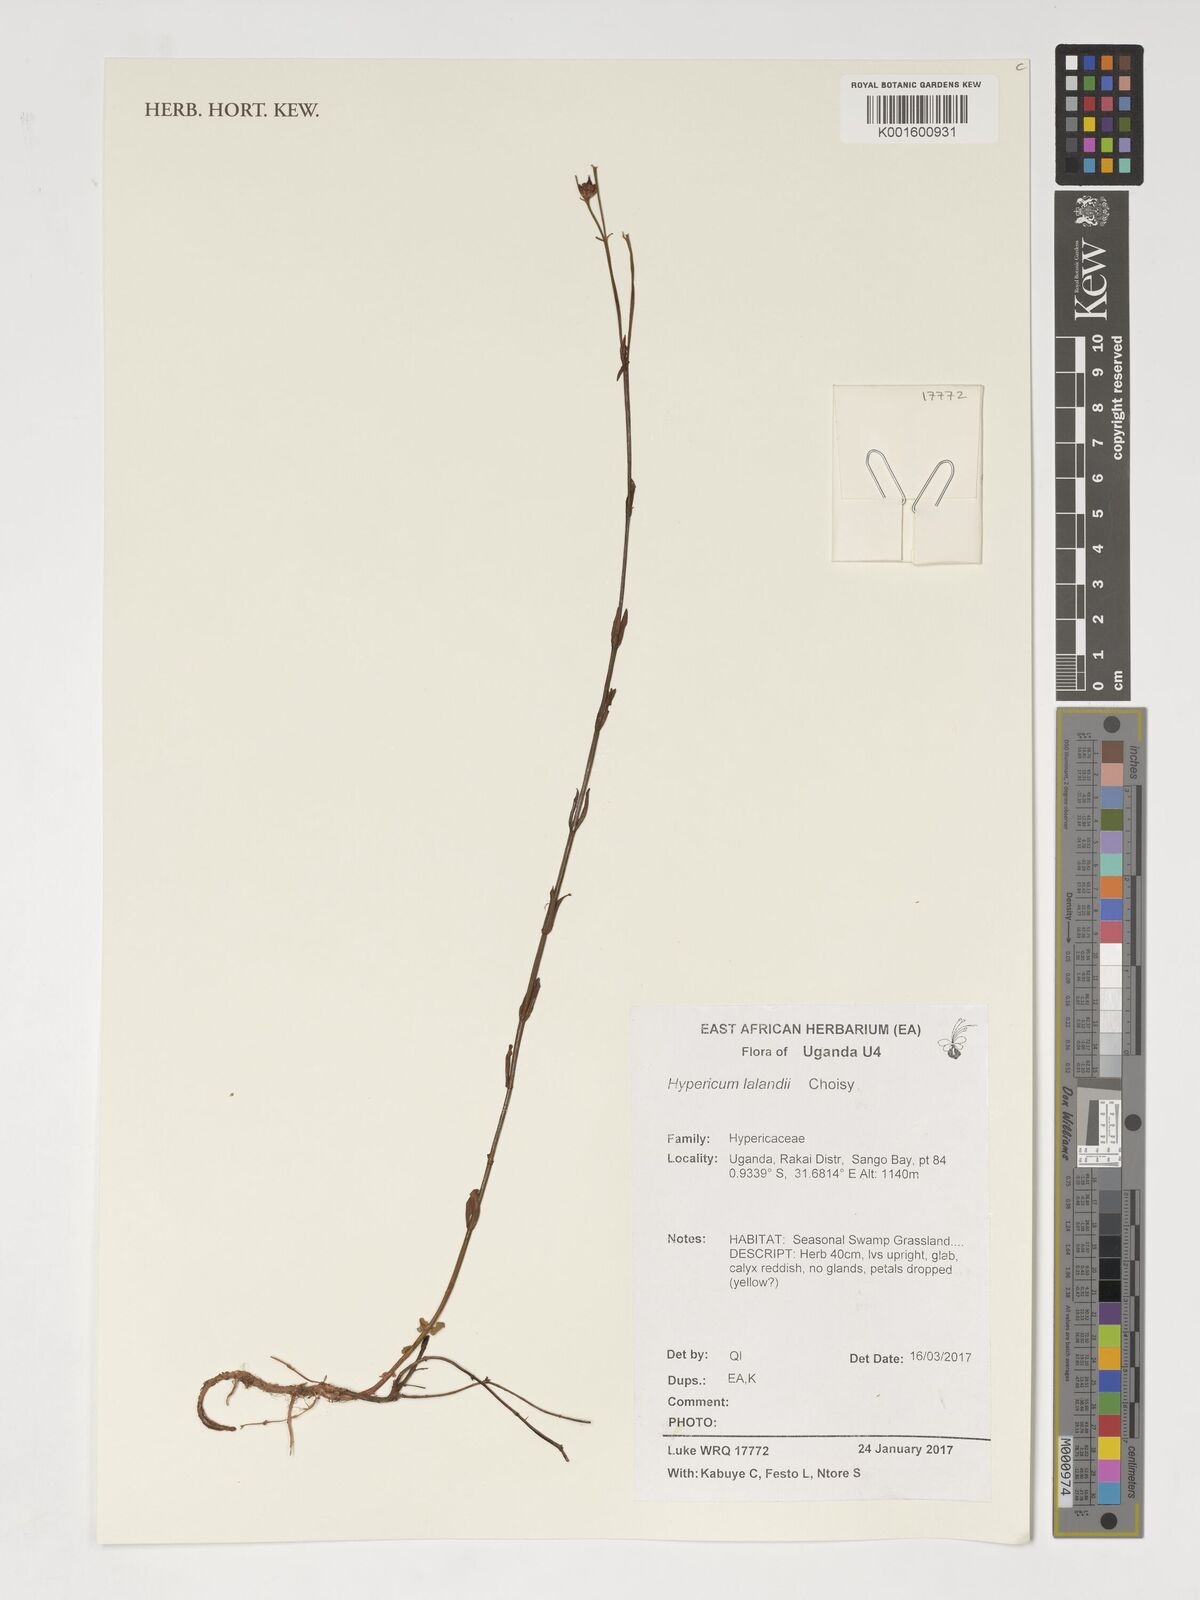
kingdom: Plantae
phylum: Tracheophyta
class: Magnoliopsida
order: Malpighiales
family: Hypericaceae
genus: Hypericum
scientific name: Hypericum lalandii
